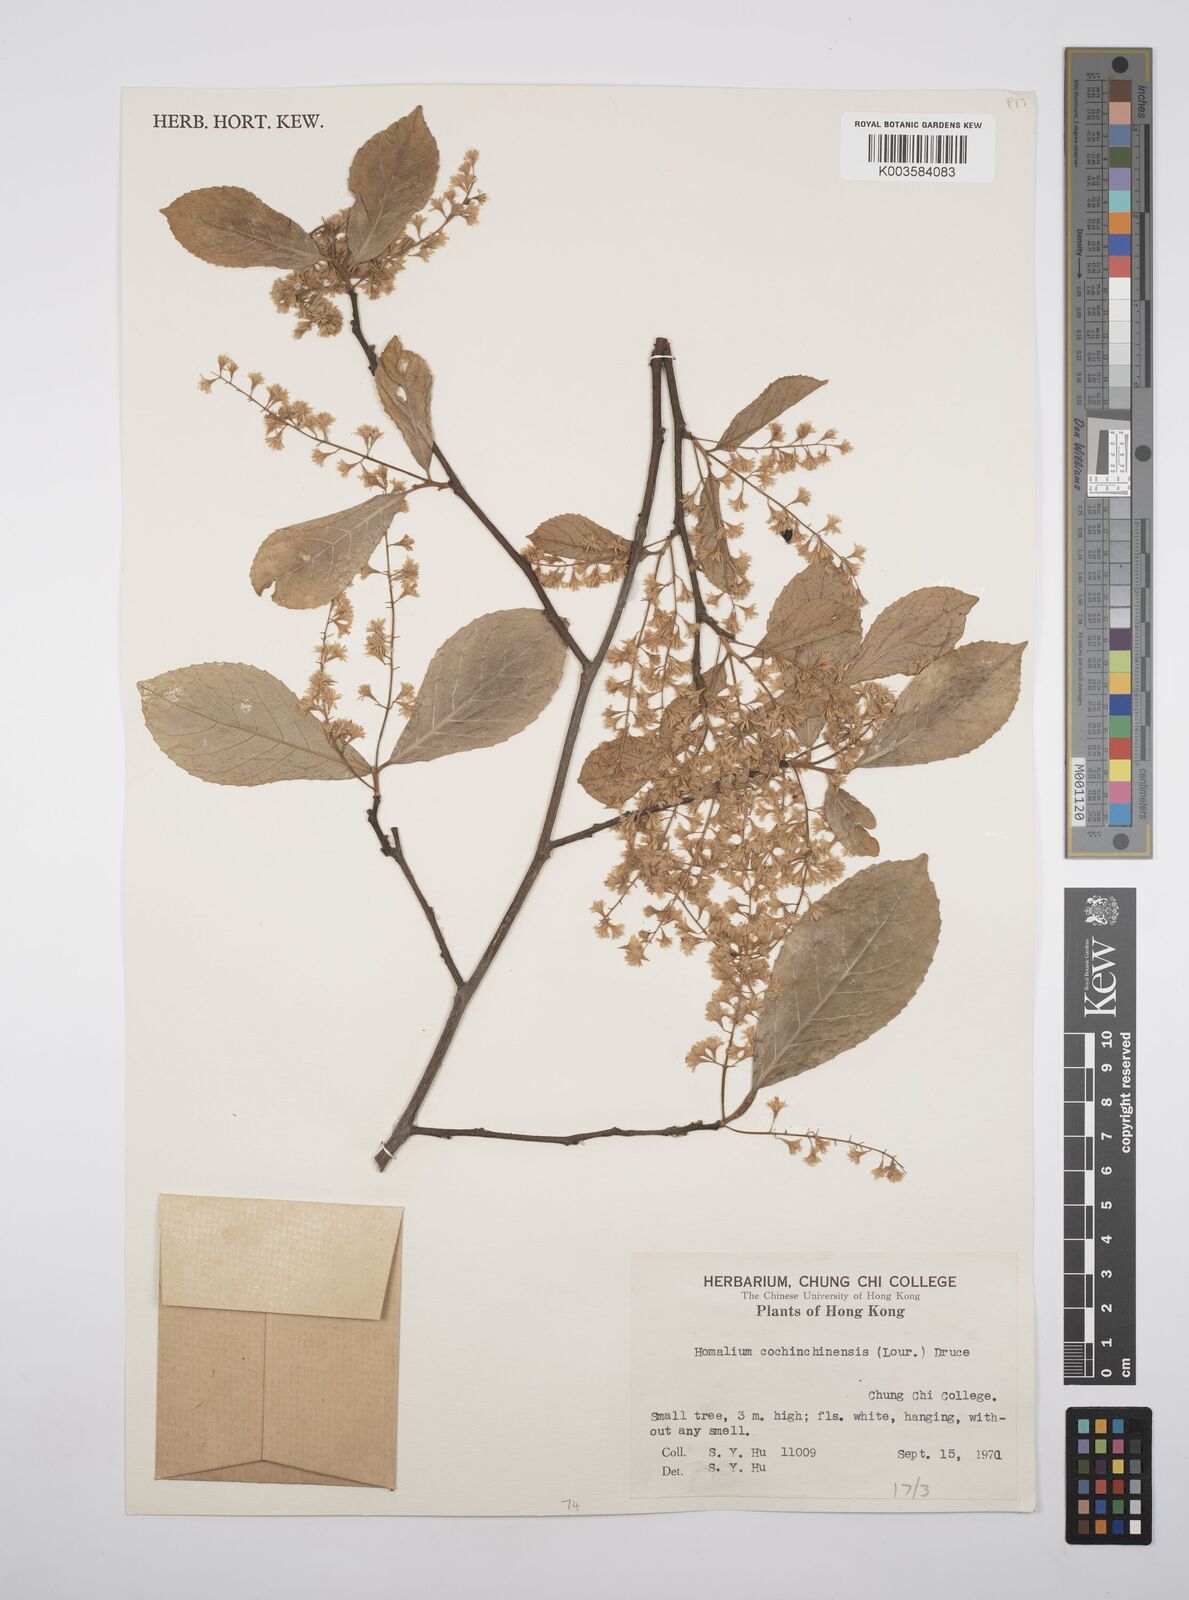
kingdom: Plantae
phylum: Tracheophyta
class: Magnoliopsida
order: Malpighiales
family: Salicaceae
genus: Homalium
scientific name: Homalium cochinchinensis
